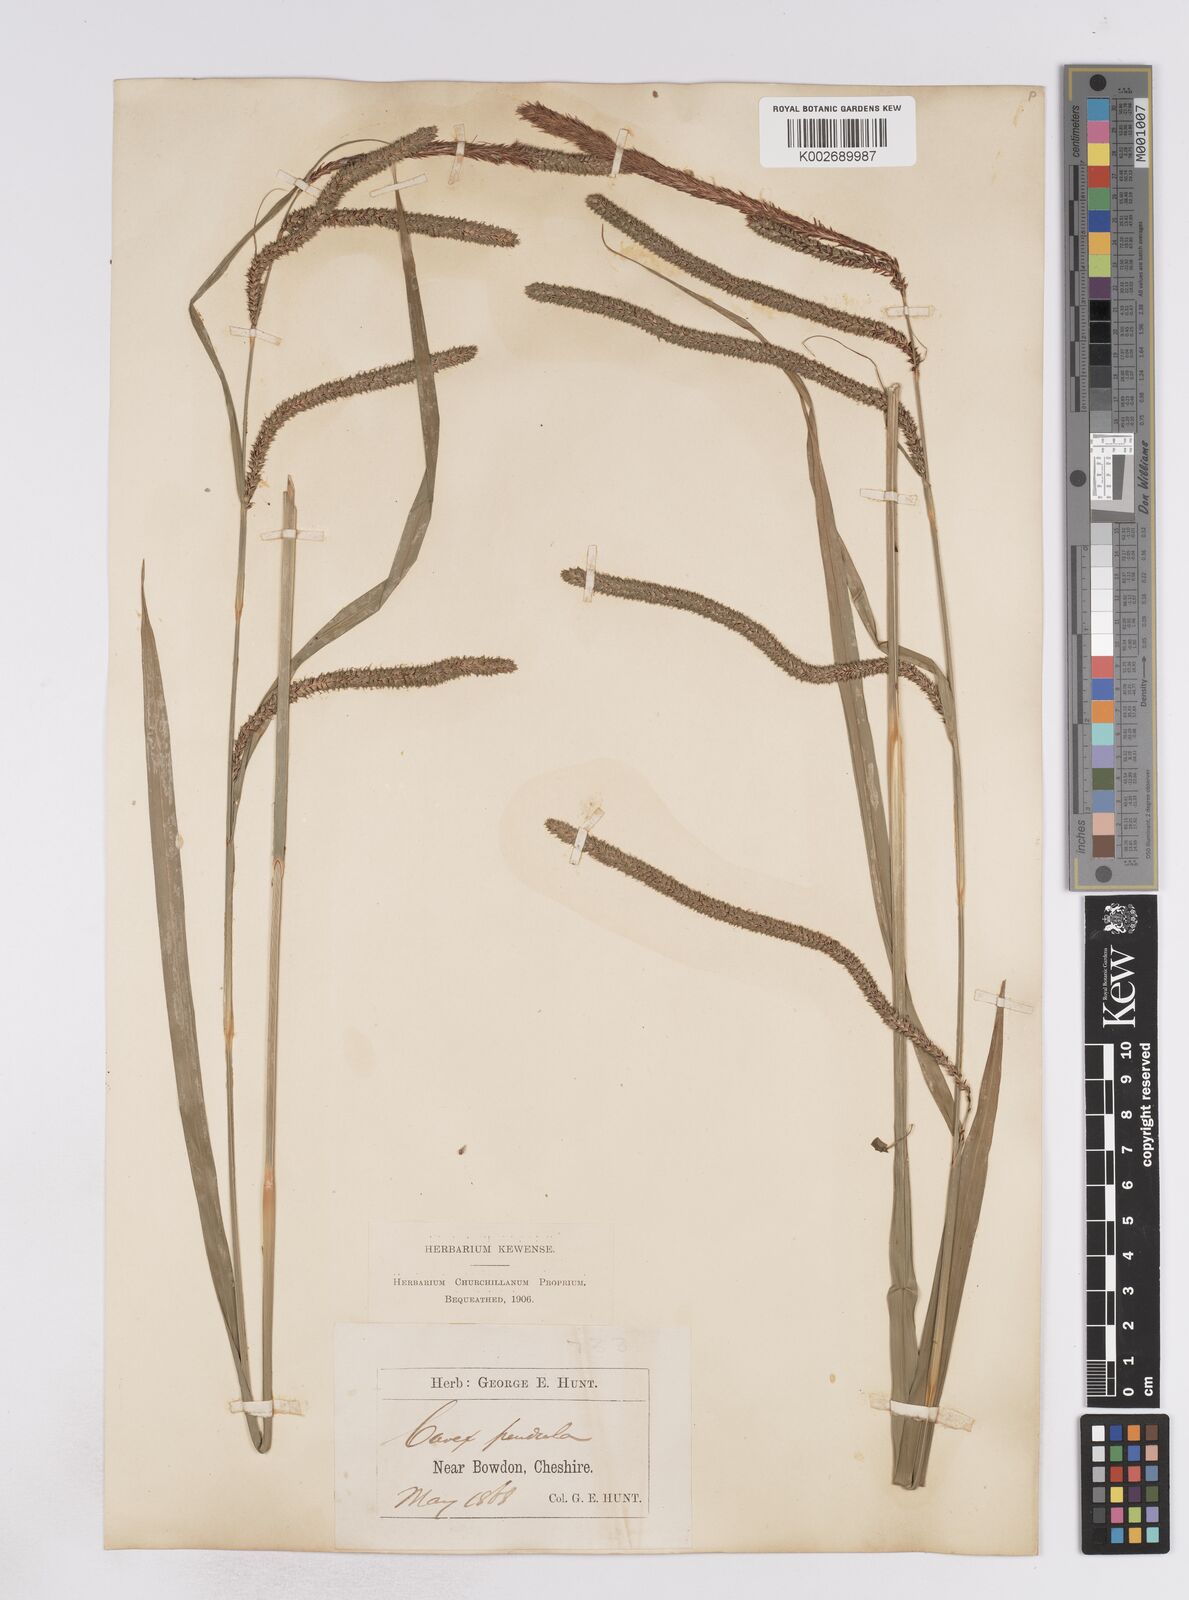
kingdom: Plantae
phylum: Tracheophyta
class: Liliopsida
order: Poales
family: Cyperaceae
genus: Carex
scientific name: Carex pendula
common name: Pendulous sedge
